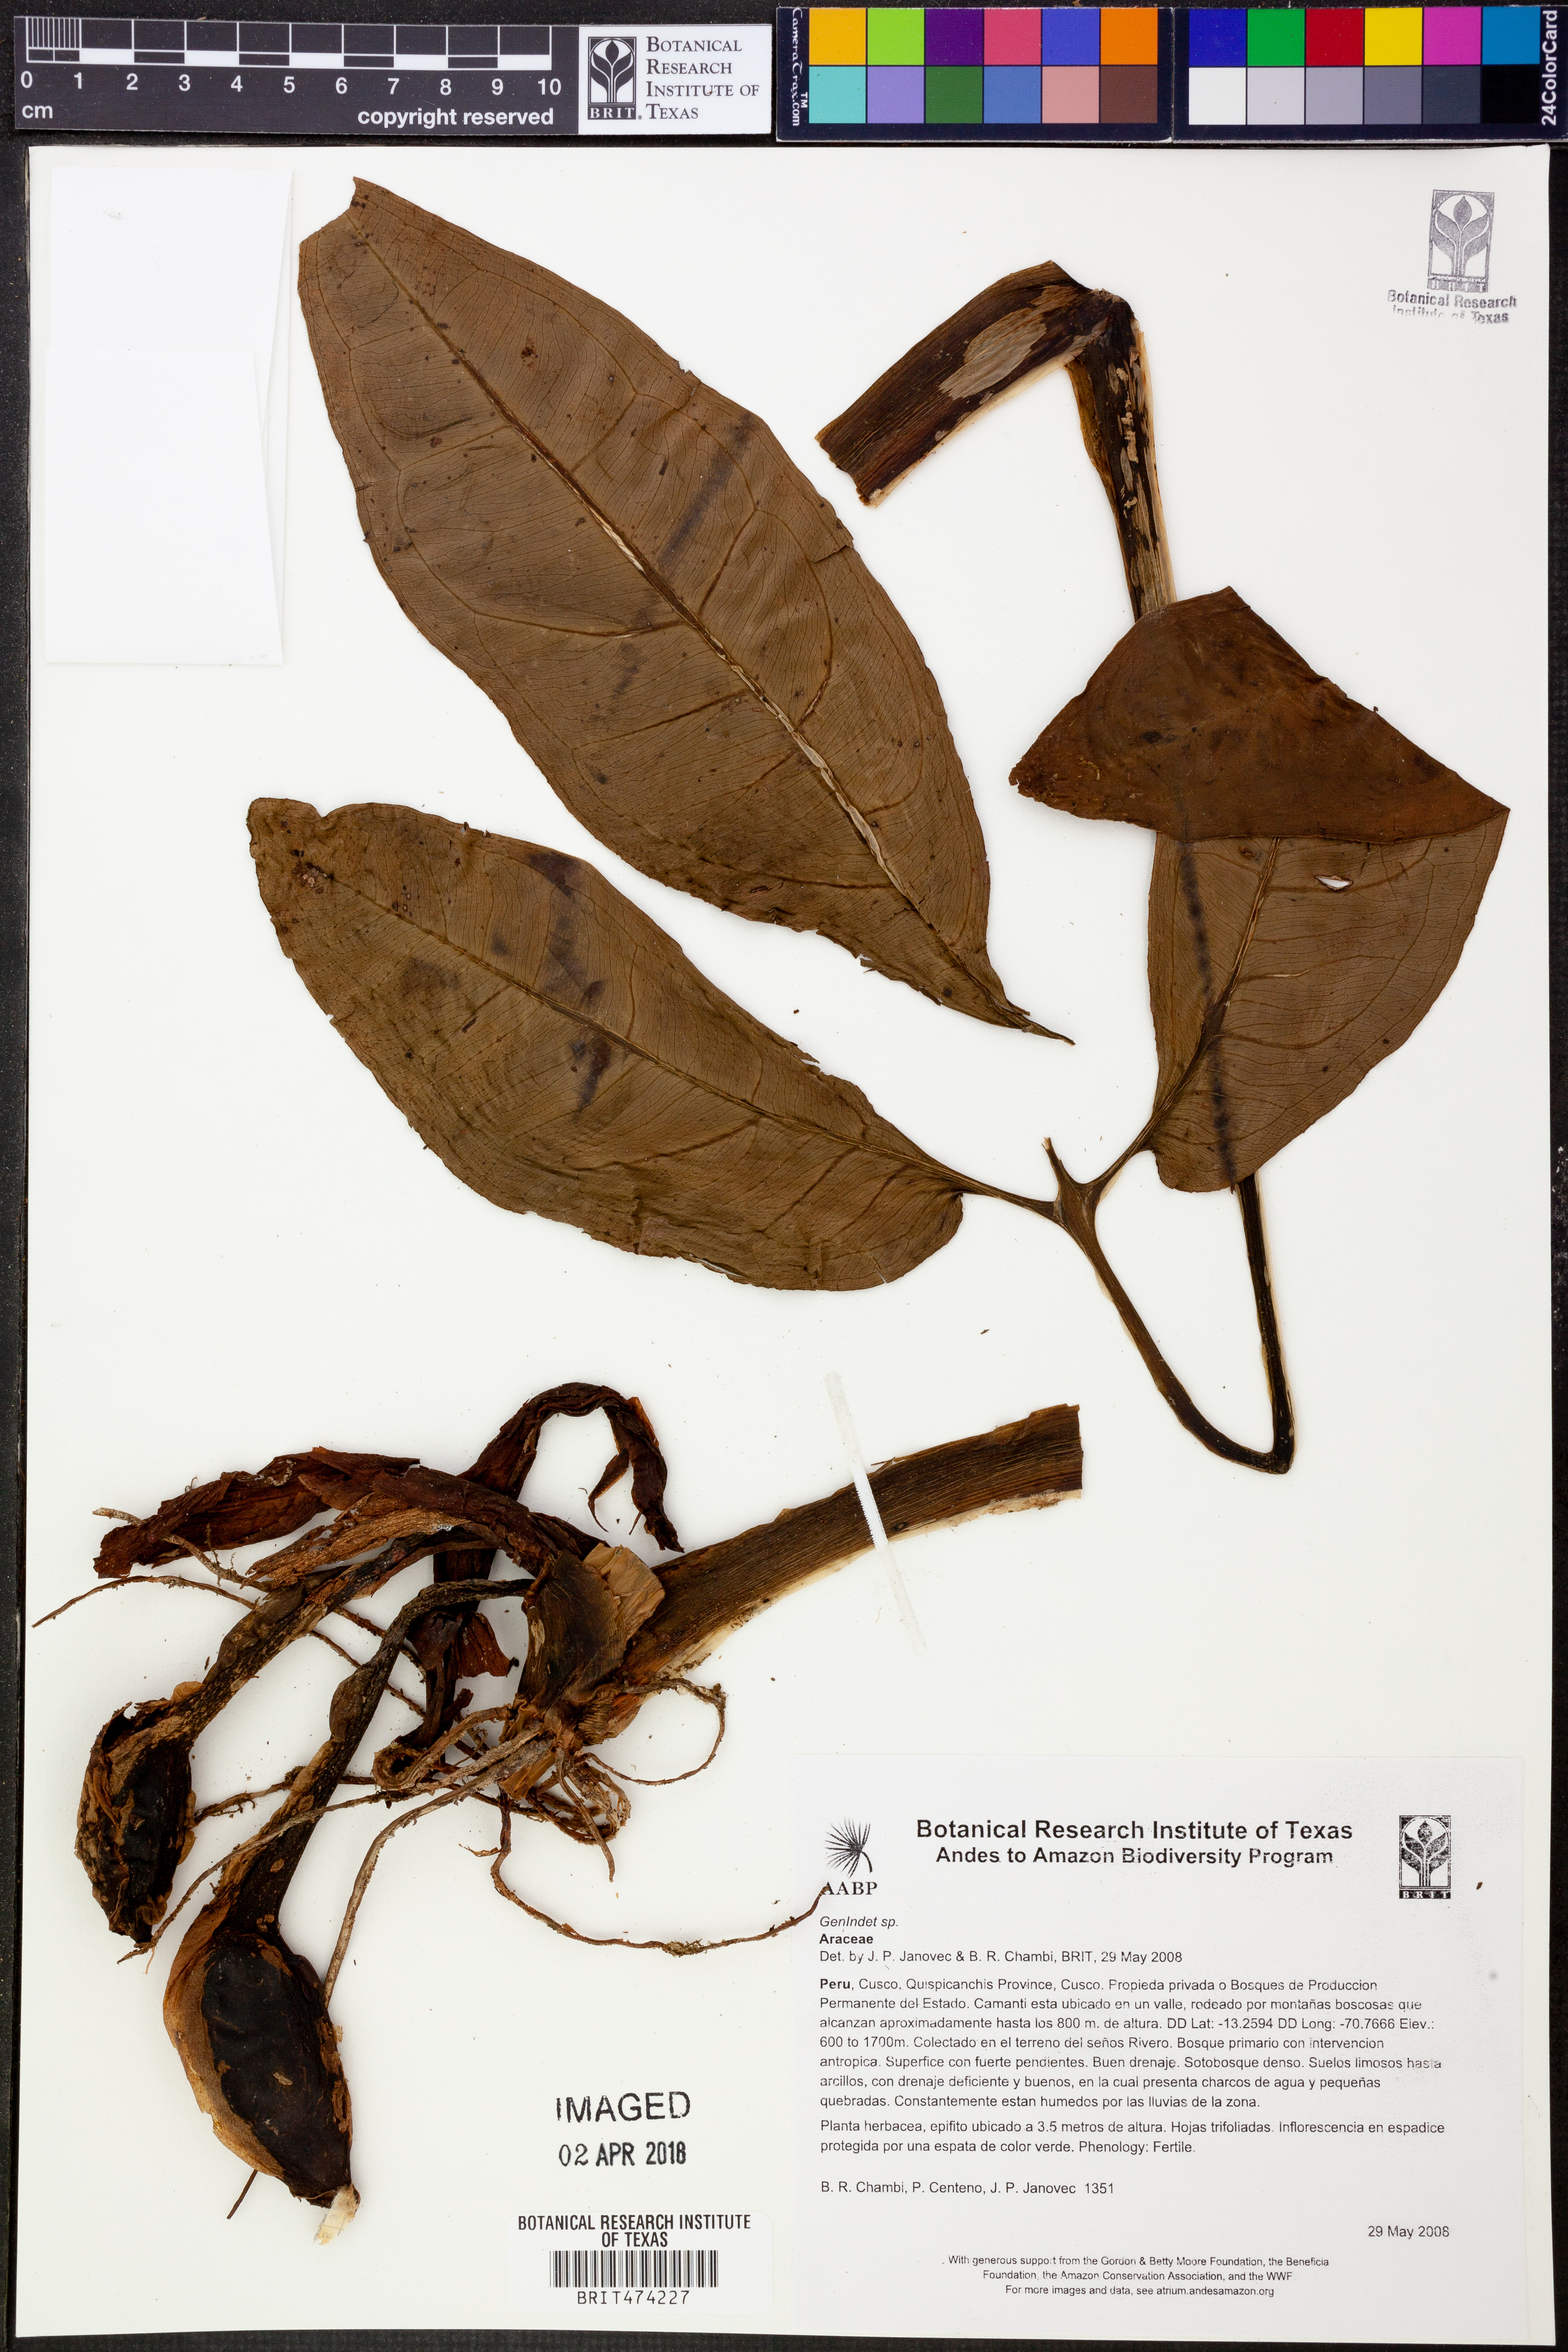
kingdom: Plantae
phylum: Tracheophyta
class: Liliopsida
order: Alismatales
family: Araceae
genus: Syngonium
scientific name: Syngonium podophyllum
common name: American evergreen
